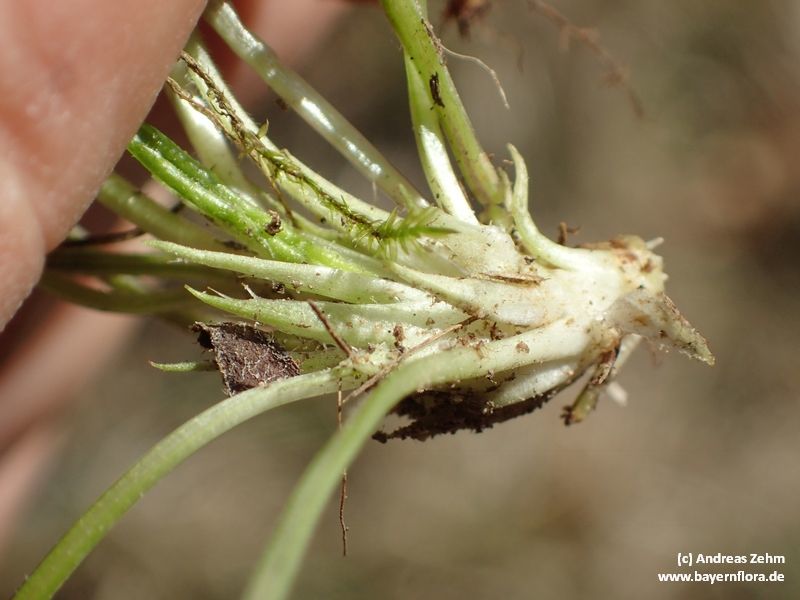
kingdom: Plantae
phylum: Tracheophyta
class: Magnoliopsida
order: Malpighiales
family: Violaceae
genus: Viola
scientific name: Viola hirta
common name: Hairy violet
